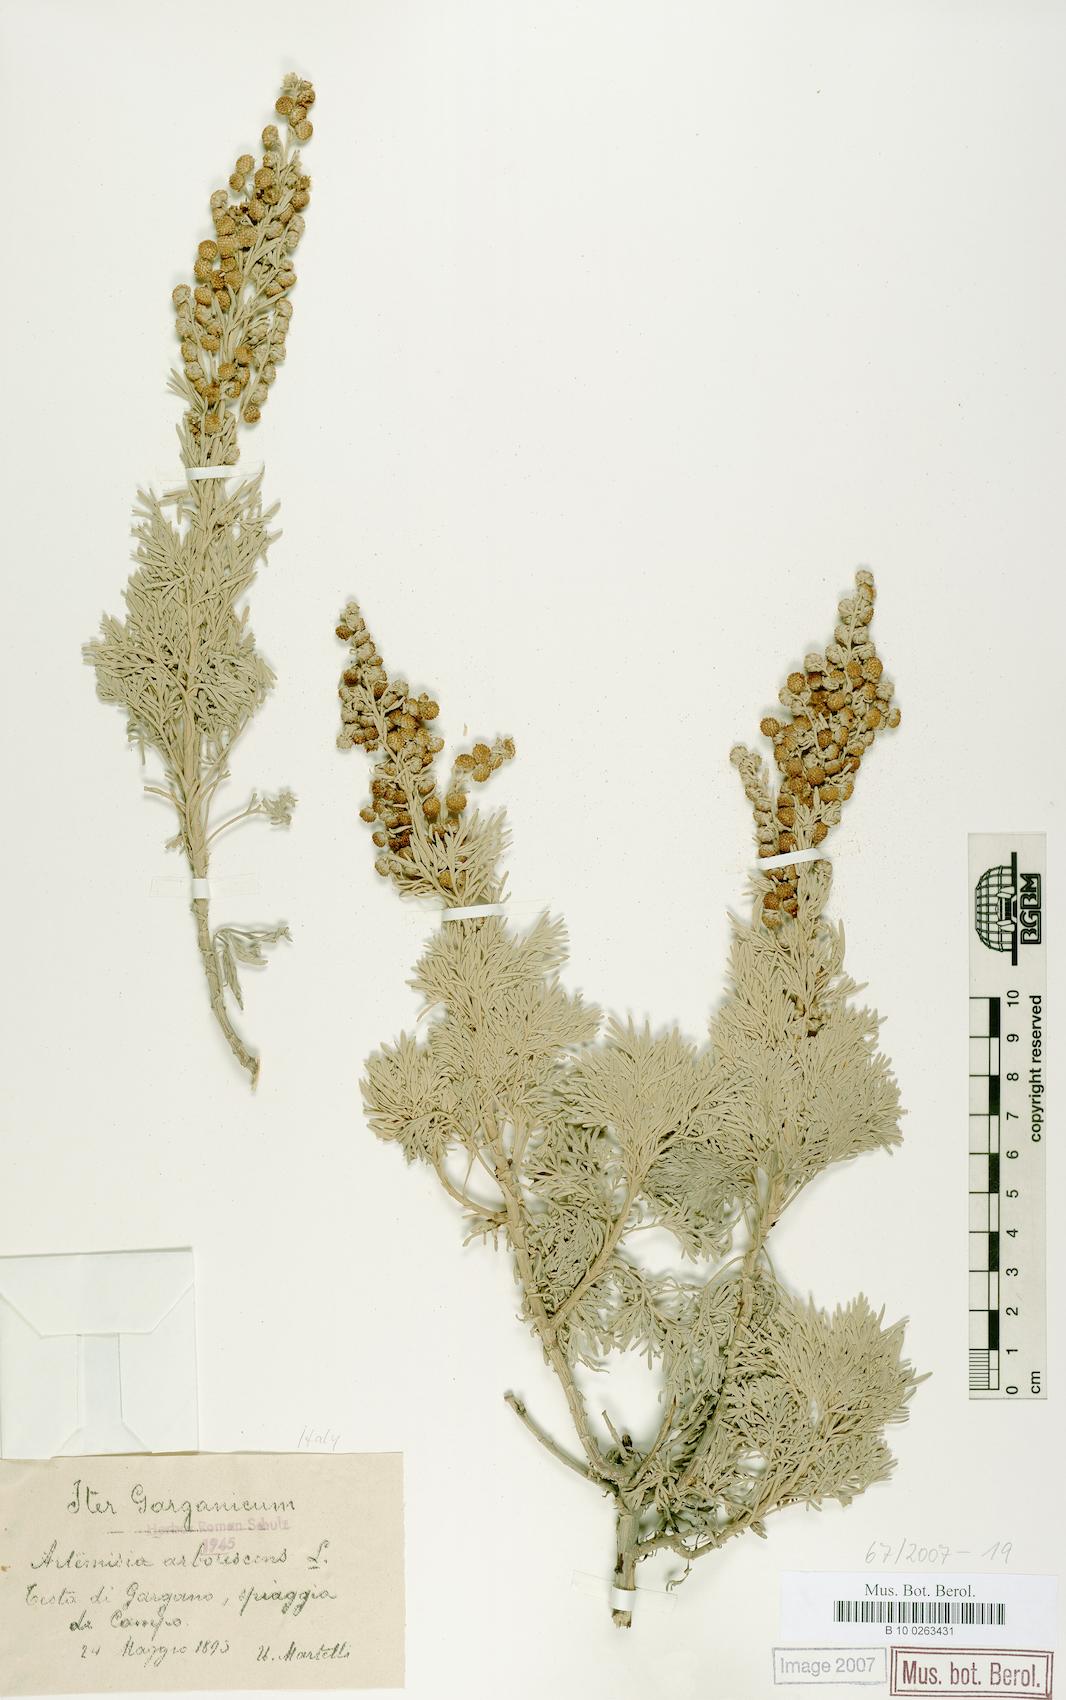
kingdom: Plantae
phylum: Tracheophyta
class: Magnoliopsida
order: Asterales
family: Asteraceae
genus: Artemisia
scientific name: Artemisia arborescens
